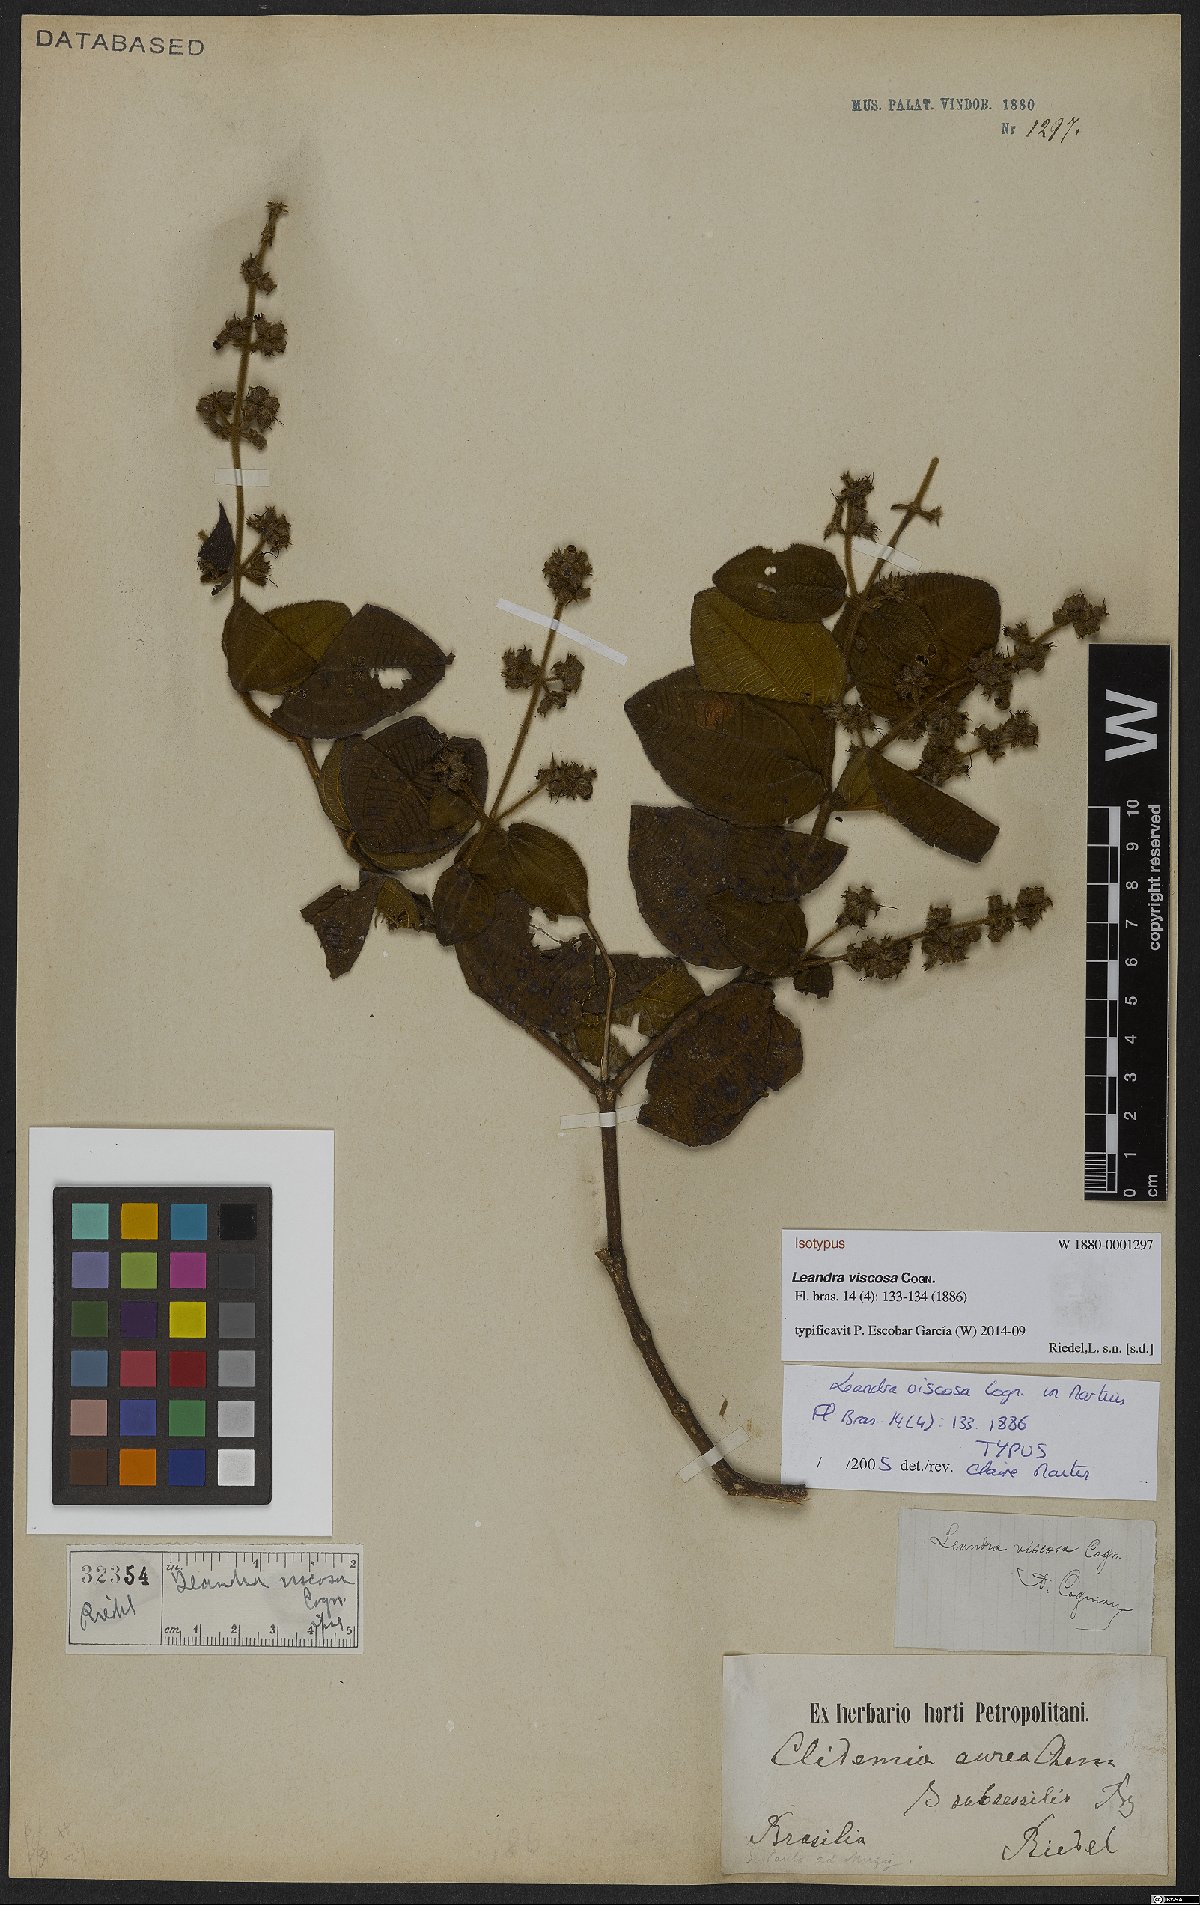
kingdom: Plantae
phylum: Tracheophyta
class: Magnoliopsida
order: Myrtales
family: Melastomataceae
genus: Miconia
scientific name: Miconia viscosa
